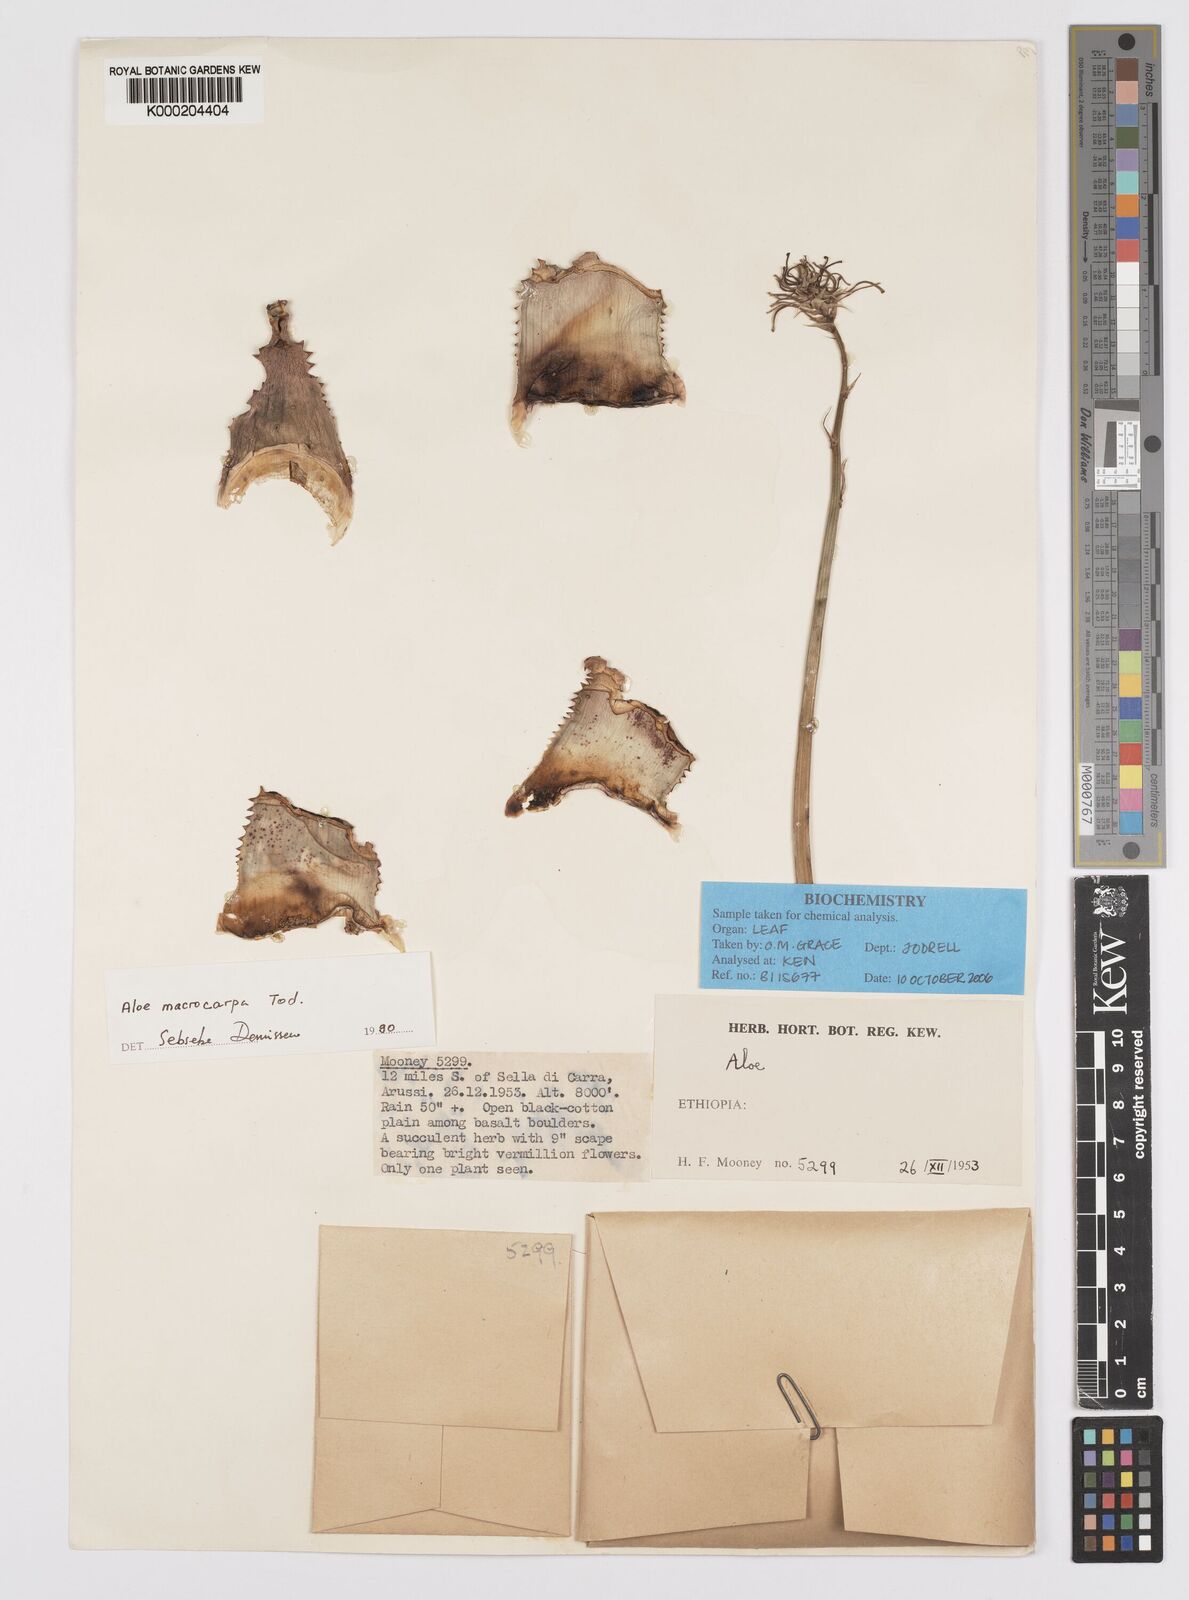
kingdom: Plantae
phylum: Tracheophyta
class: Liliopsida
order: Asparagales
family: Asphodelaceae
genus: Aloe
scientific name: Aloe macrocarpa
